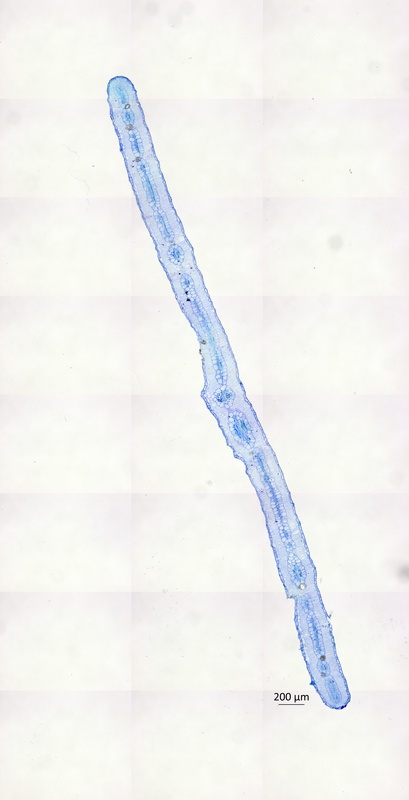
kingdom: Plantae
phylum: Tracheophyta
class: Magnoliopsida
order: Zygophyllales
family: Zygophyllaceae
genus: Tribulus
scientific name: Tribulus excrucians
